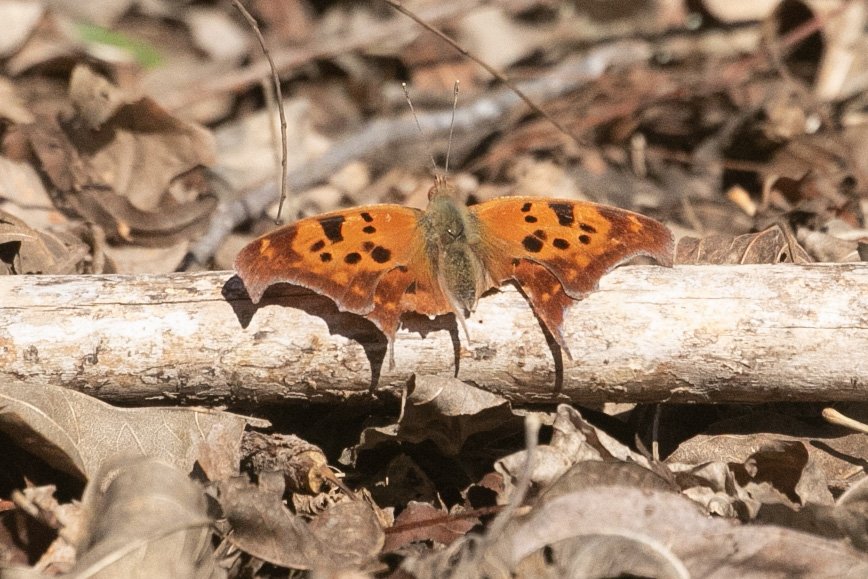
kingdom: Animalia
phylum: Arthropoda
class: Insecta
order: Lepidoptera
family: Nymphalidae
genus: Polygonia
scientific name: Polygonia interrogationis
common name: Question Mark
